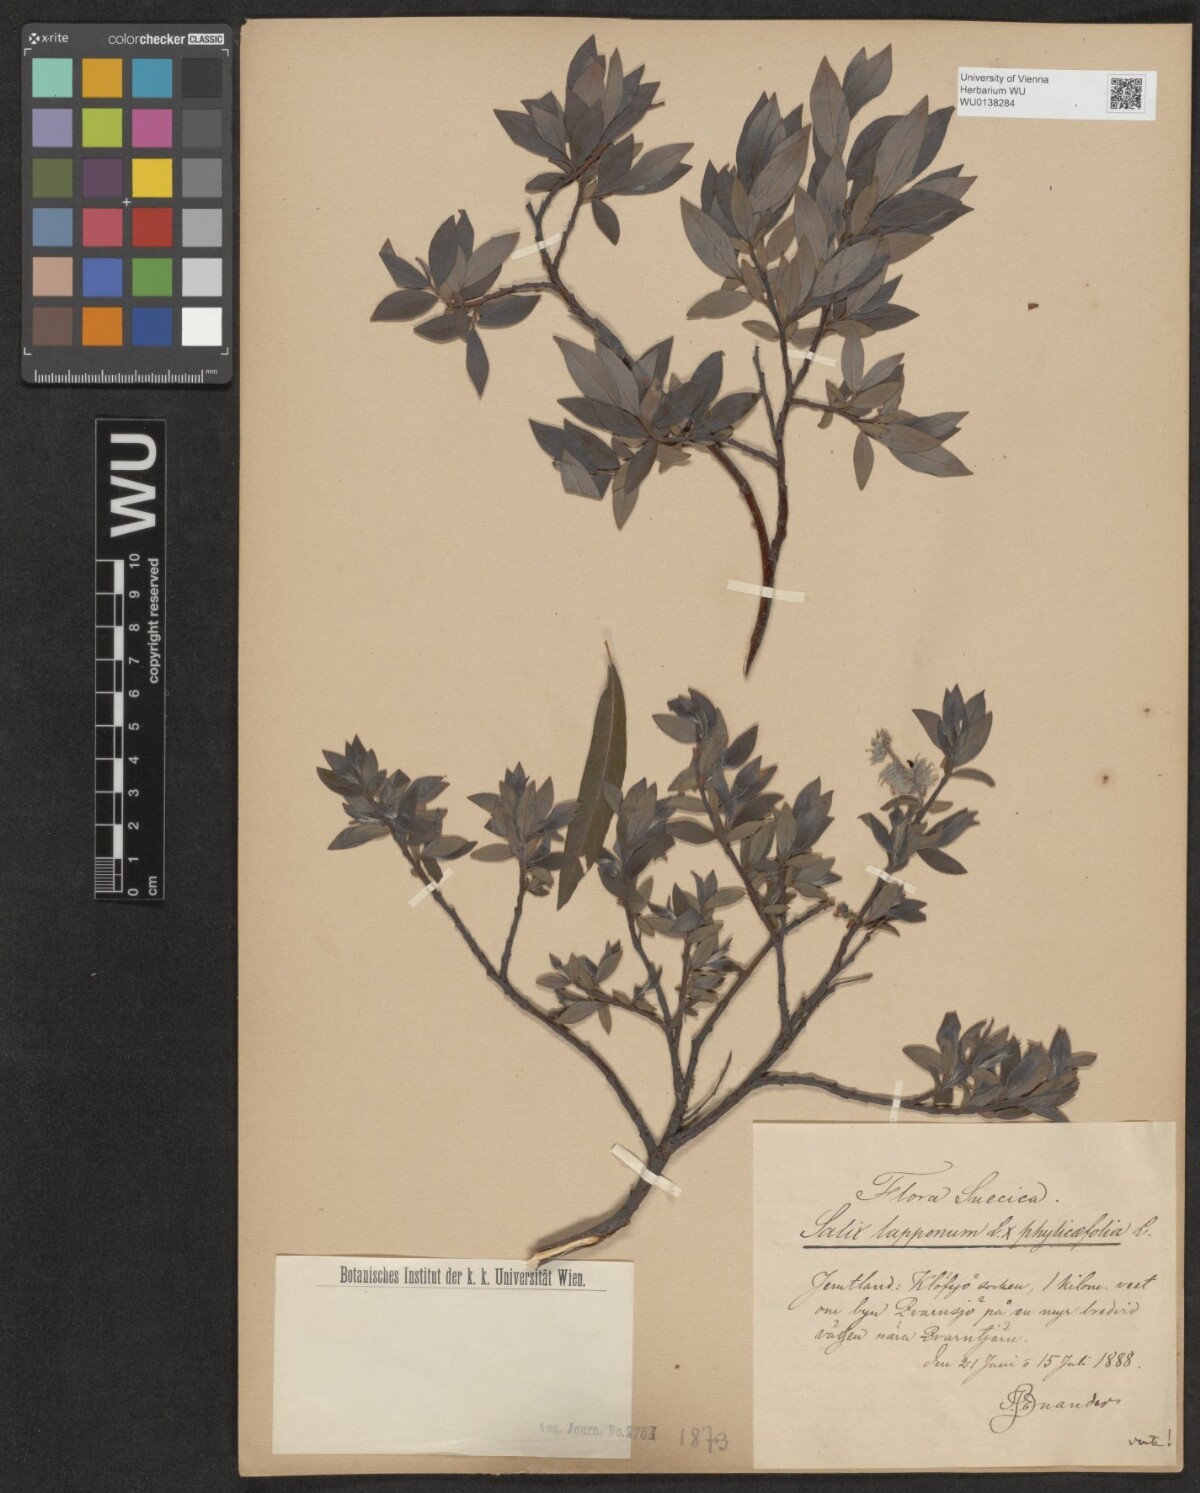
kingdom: Plantae
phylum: Tracheophyta
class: Magnoliopsida
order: Malpighiales
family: Salicaceae
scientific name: Salicaceae
